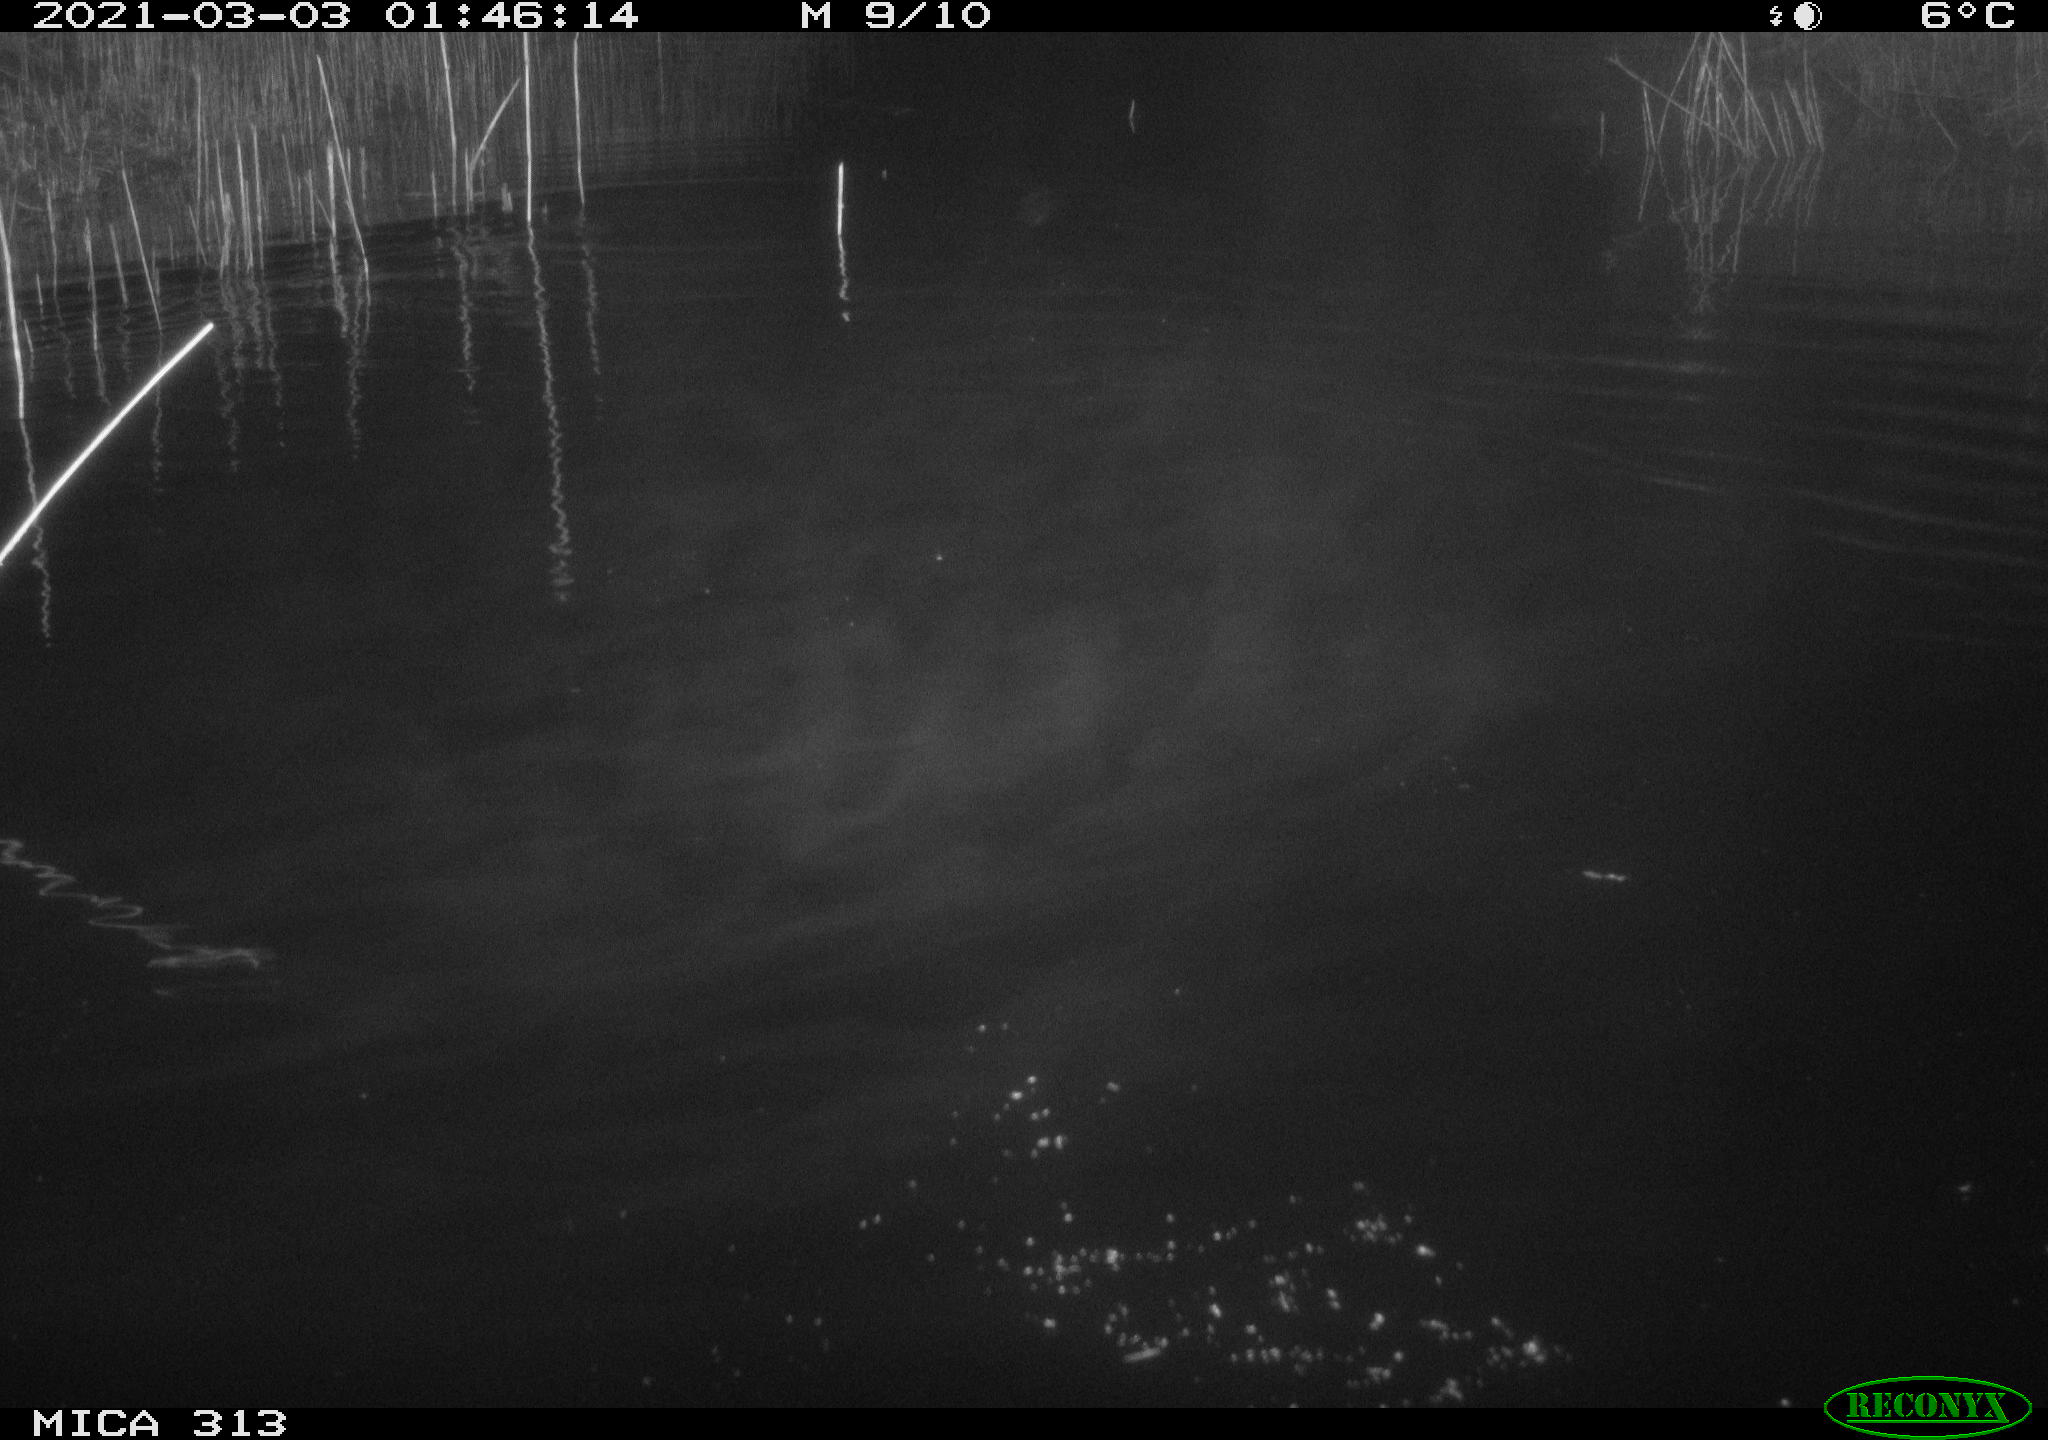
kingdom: Animalia
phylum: Chordata
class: Mammalia
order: Rodentia
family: Cricetidae
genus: Ondatra
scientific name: Ondatra zibethicus
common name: Muskrat
